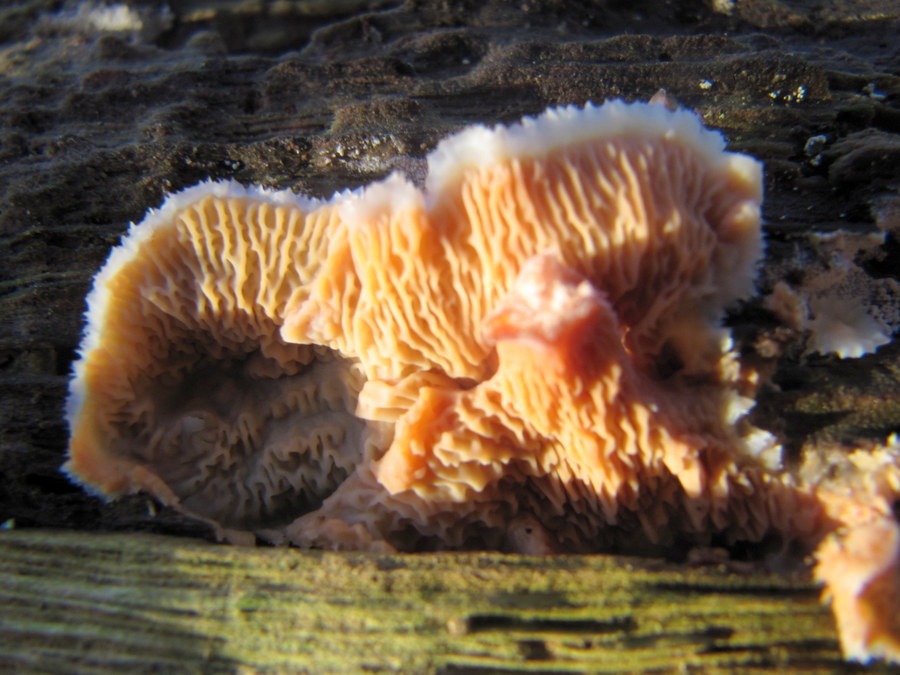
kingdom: Fungi
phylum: Basidiomycota
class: Agaricomycetes
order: Polyporales
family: Meruliaceae
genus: Phlebia
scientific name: Phlebia tremellosa
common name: bævrende åresvamp
